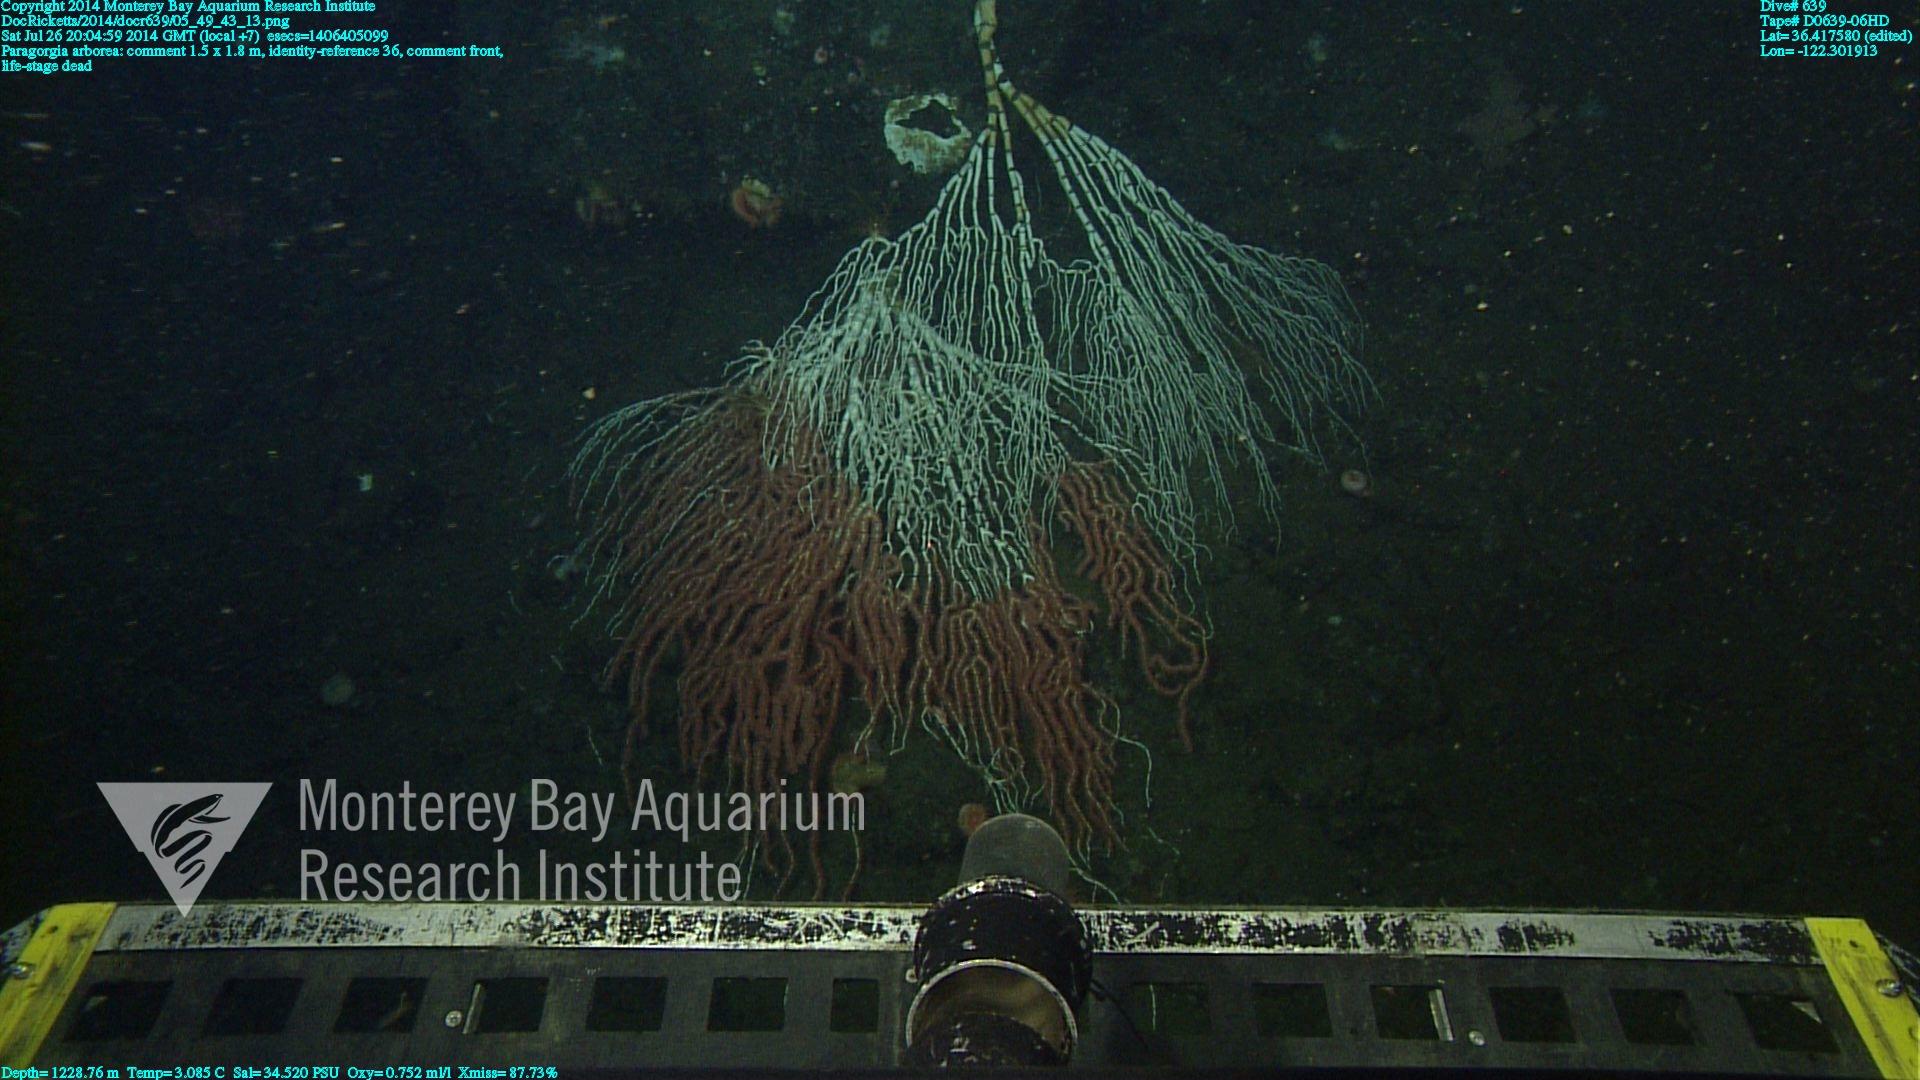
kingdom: Animalia
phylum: Cnidaria
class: Anthozoa
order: Scleralcyonacea
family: Coralliidae
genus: Paragorgia
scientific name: Paragorgia arborea
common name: Bubble gum coral
